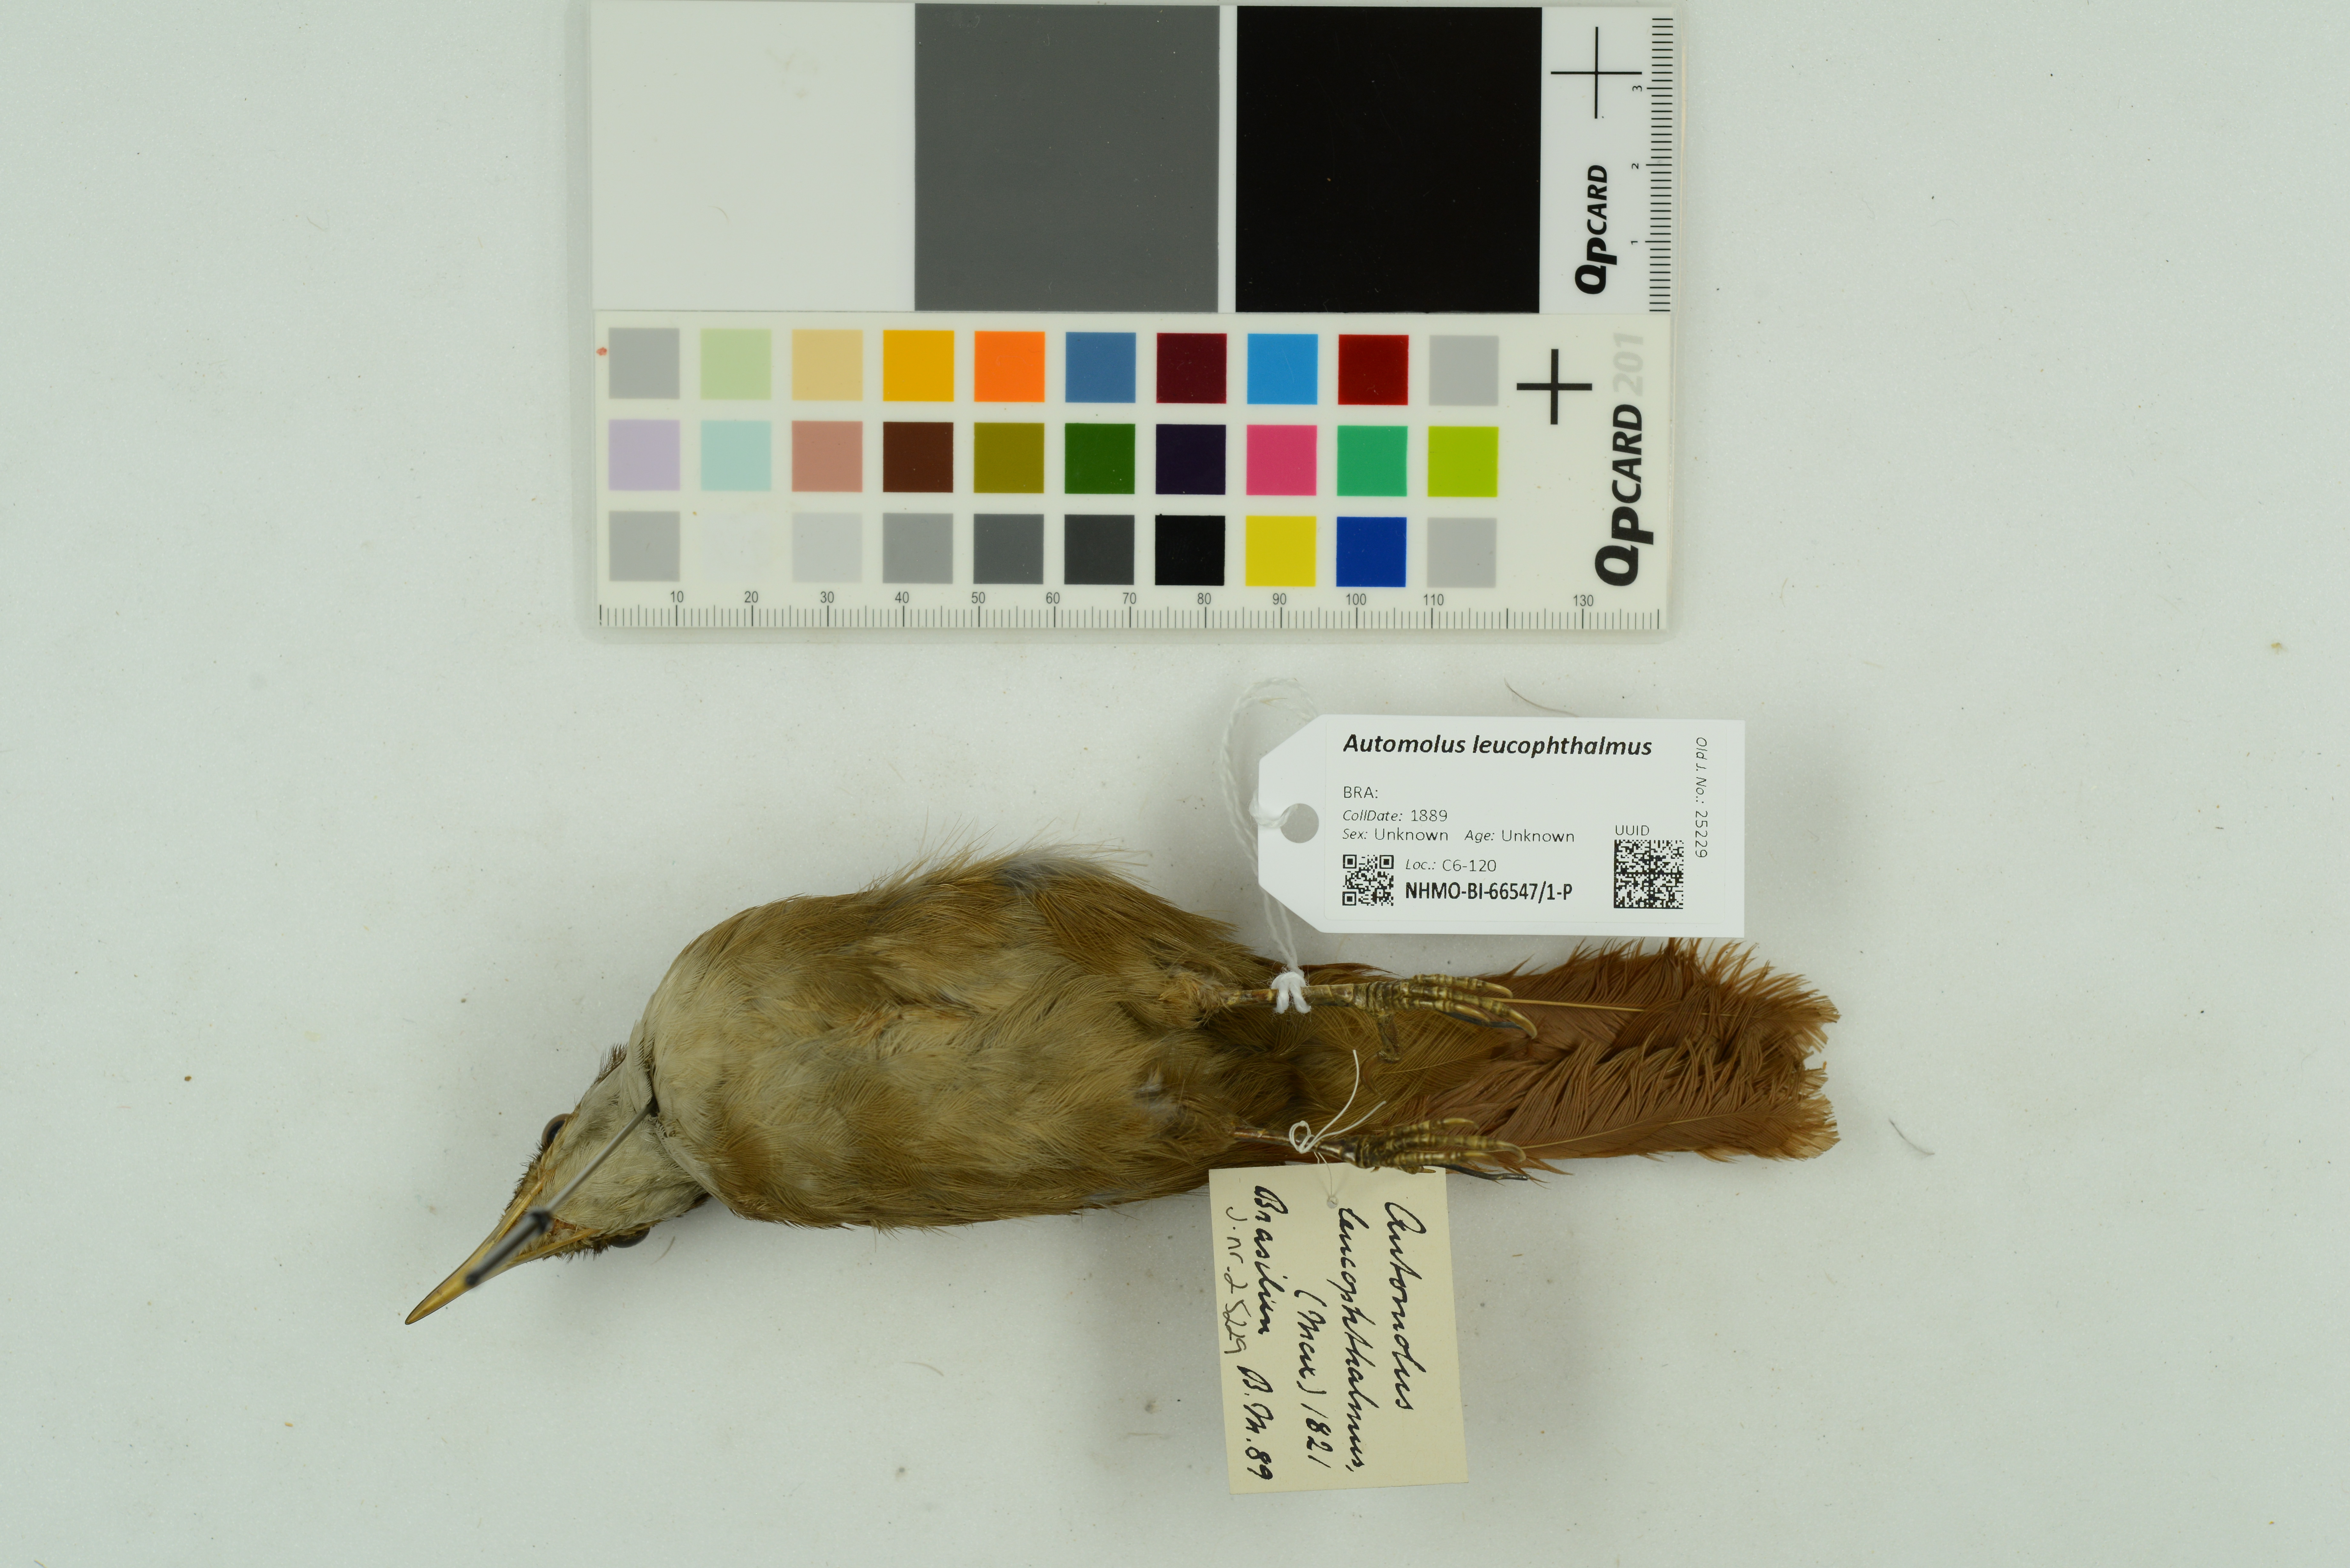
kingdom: Animalia
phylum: Chordata
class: Aves
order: Passeriformes
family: Furnariidae
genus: Automolus
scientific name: Automolus leucophthalmus
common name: White-eyed foliage-gleaner
